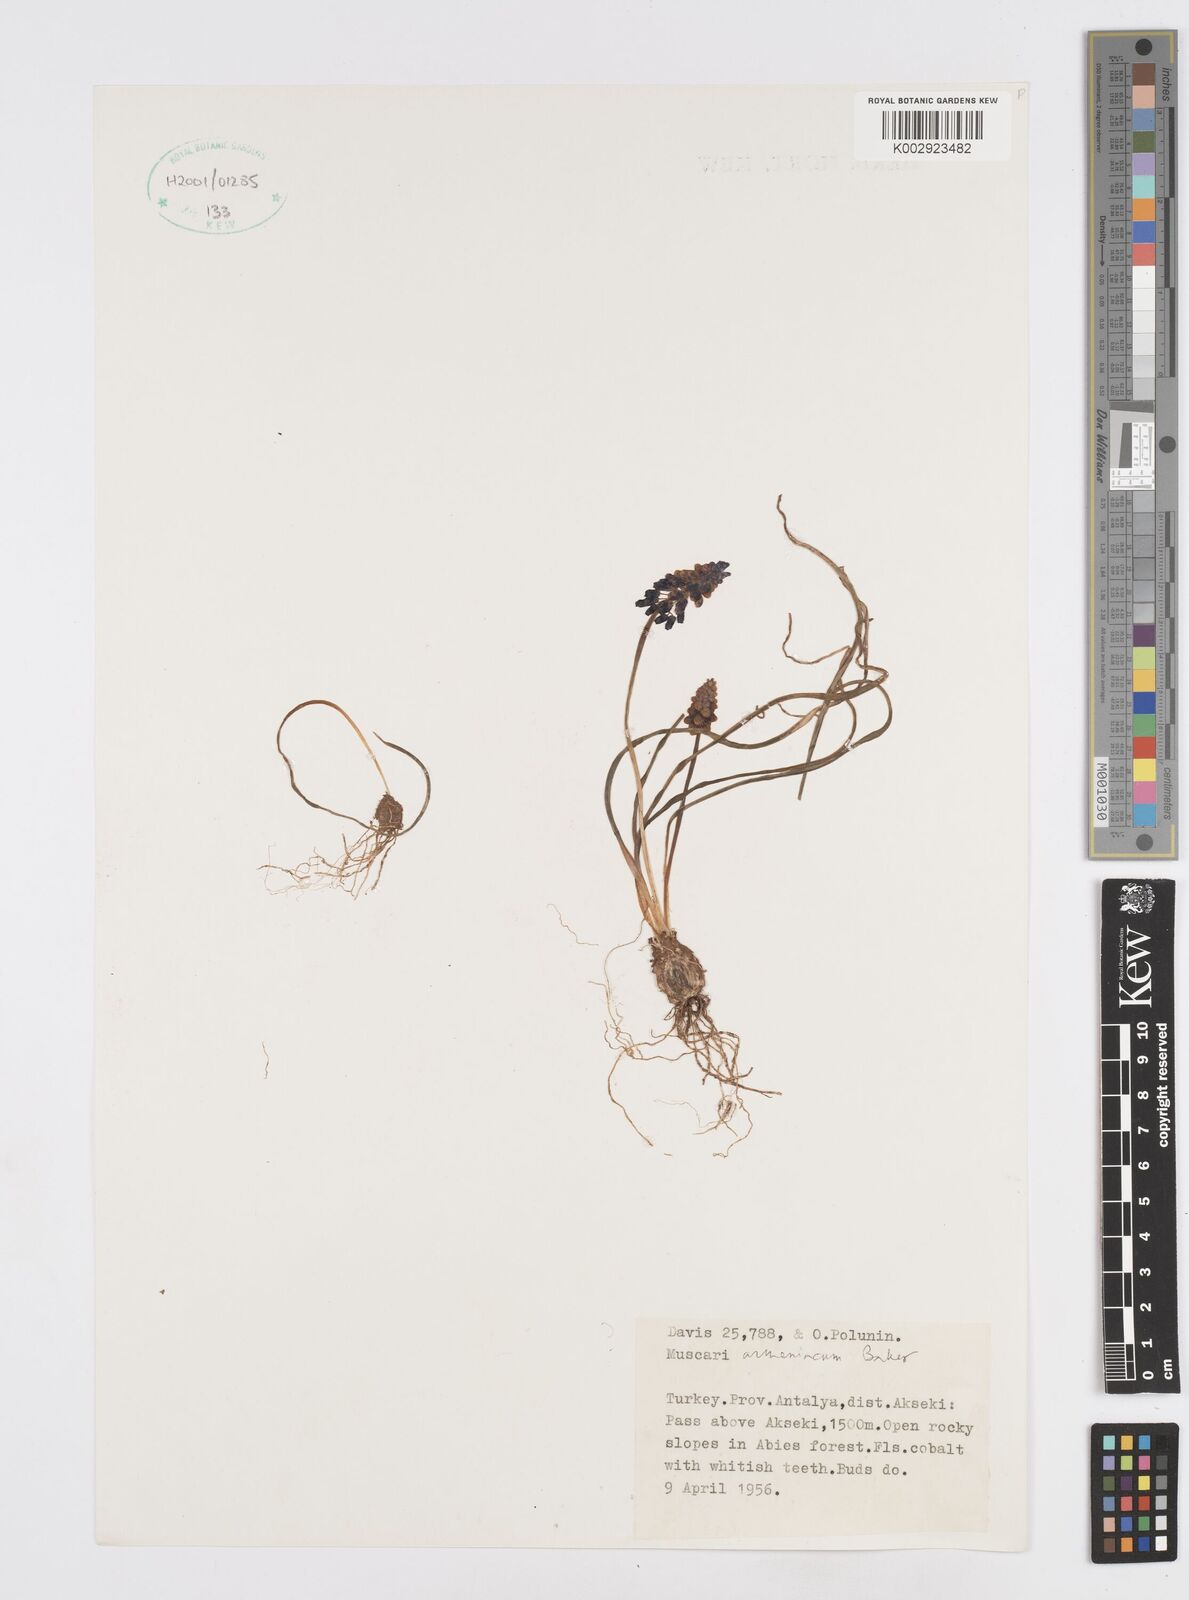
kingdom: Plantae
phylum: Tracheophyta
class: Liliopsida
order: Asparagales
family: Asparagaceae
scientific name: Asparagaceae
